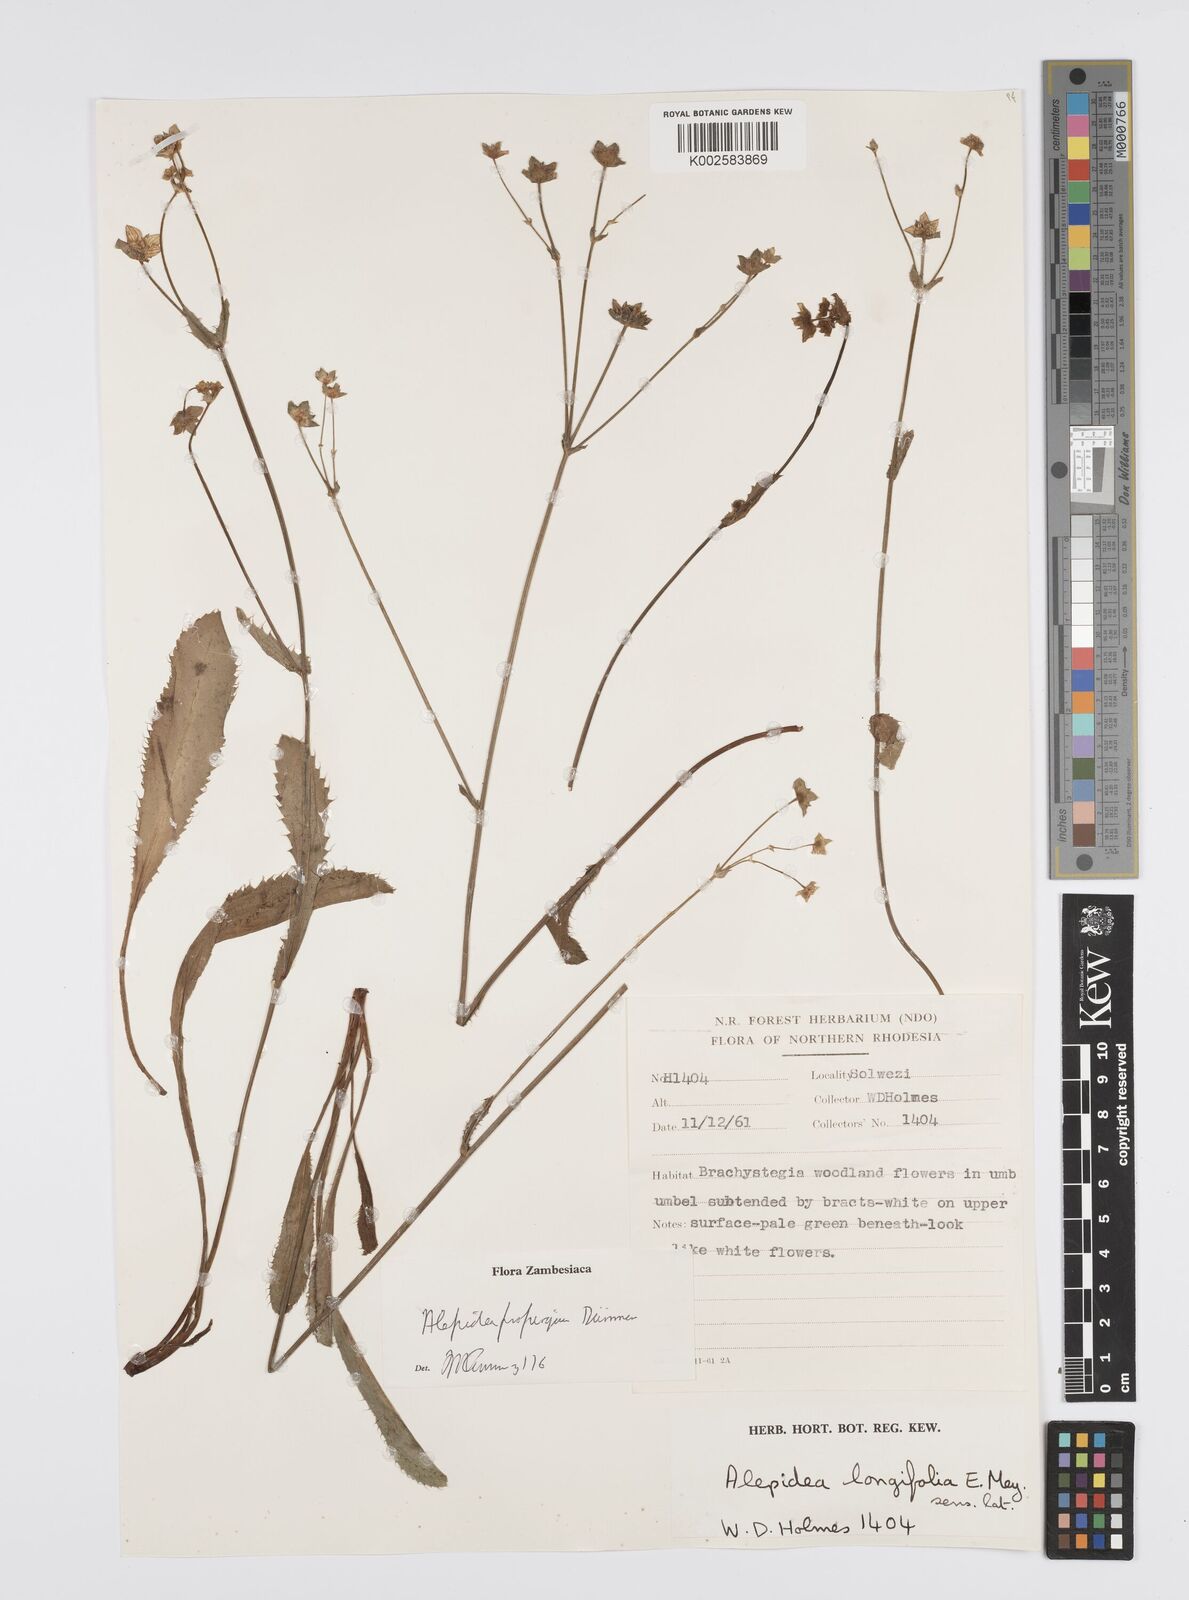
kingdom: Plantae
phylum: Tracheophyta
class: Magnoliopsida
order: Apiales
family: Apiaceae
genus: Alepidea
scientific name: Alepidea
